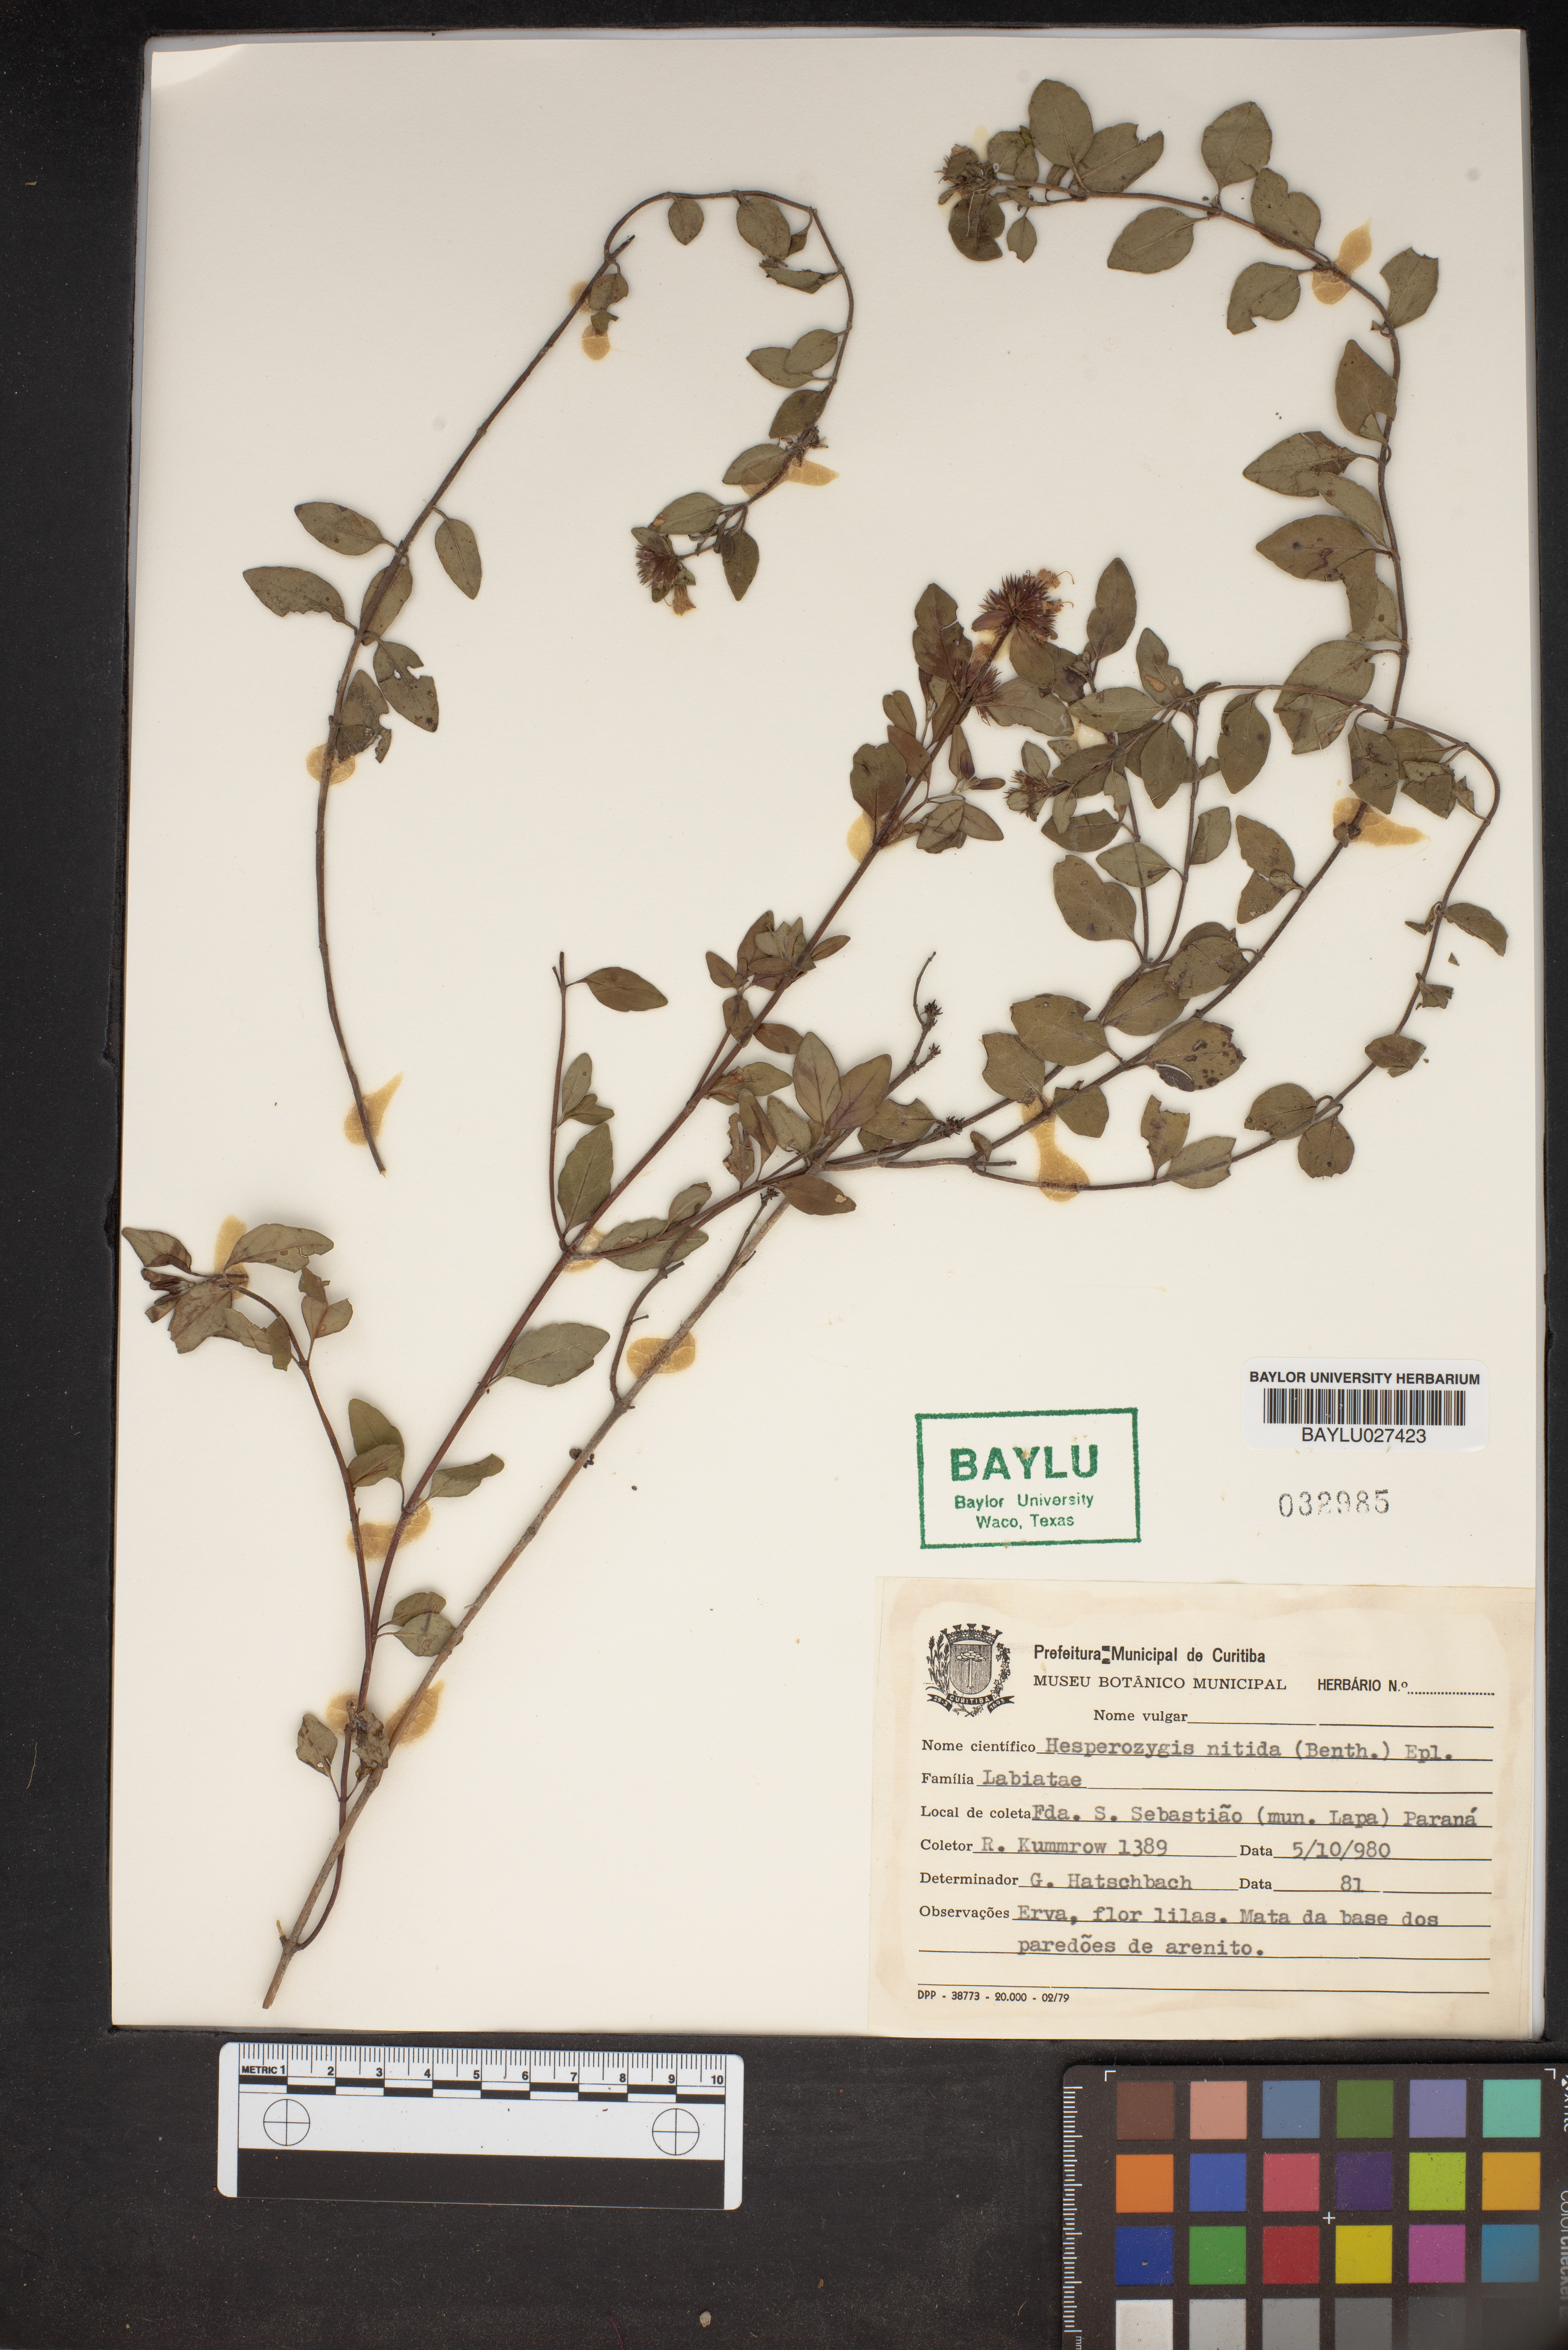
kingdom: Plantae
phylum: Tracheophyta
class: Magnoliopsida
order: Lamiales
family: Lamiaceae
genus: Hesperozygis
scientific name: Hesperozygis nitida
